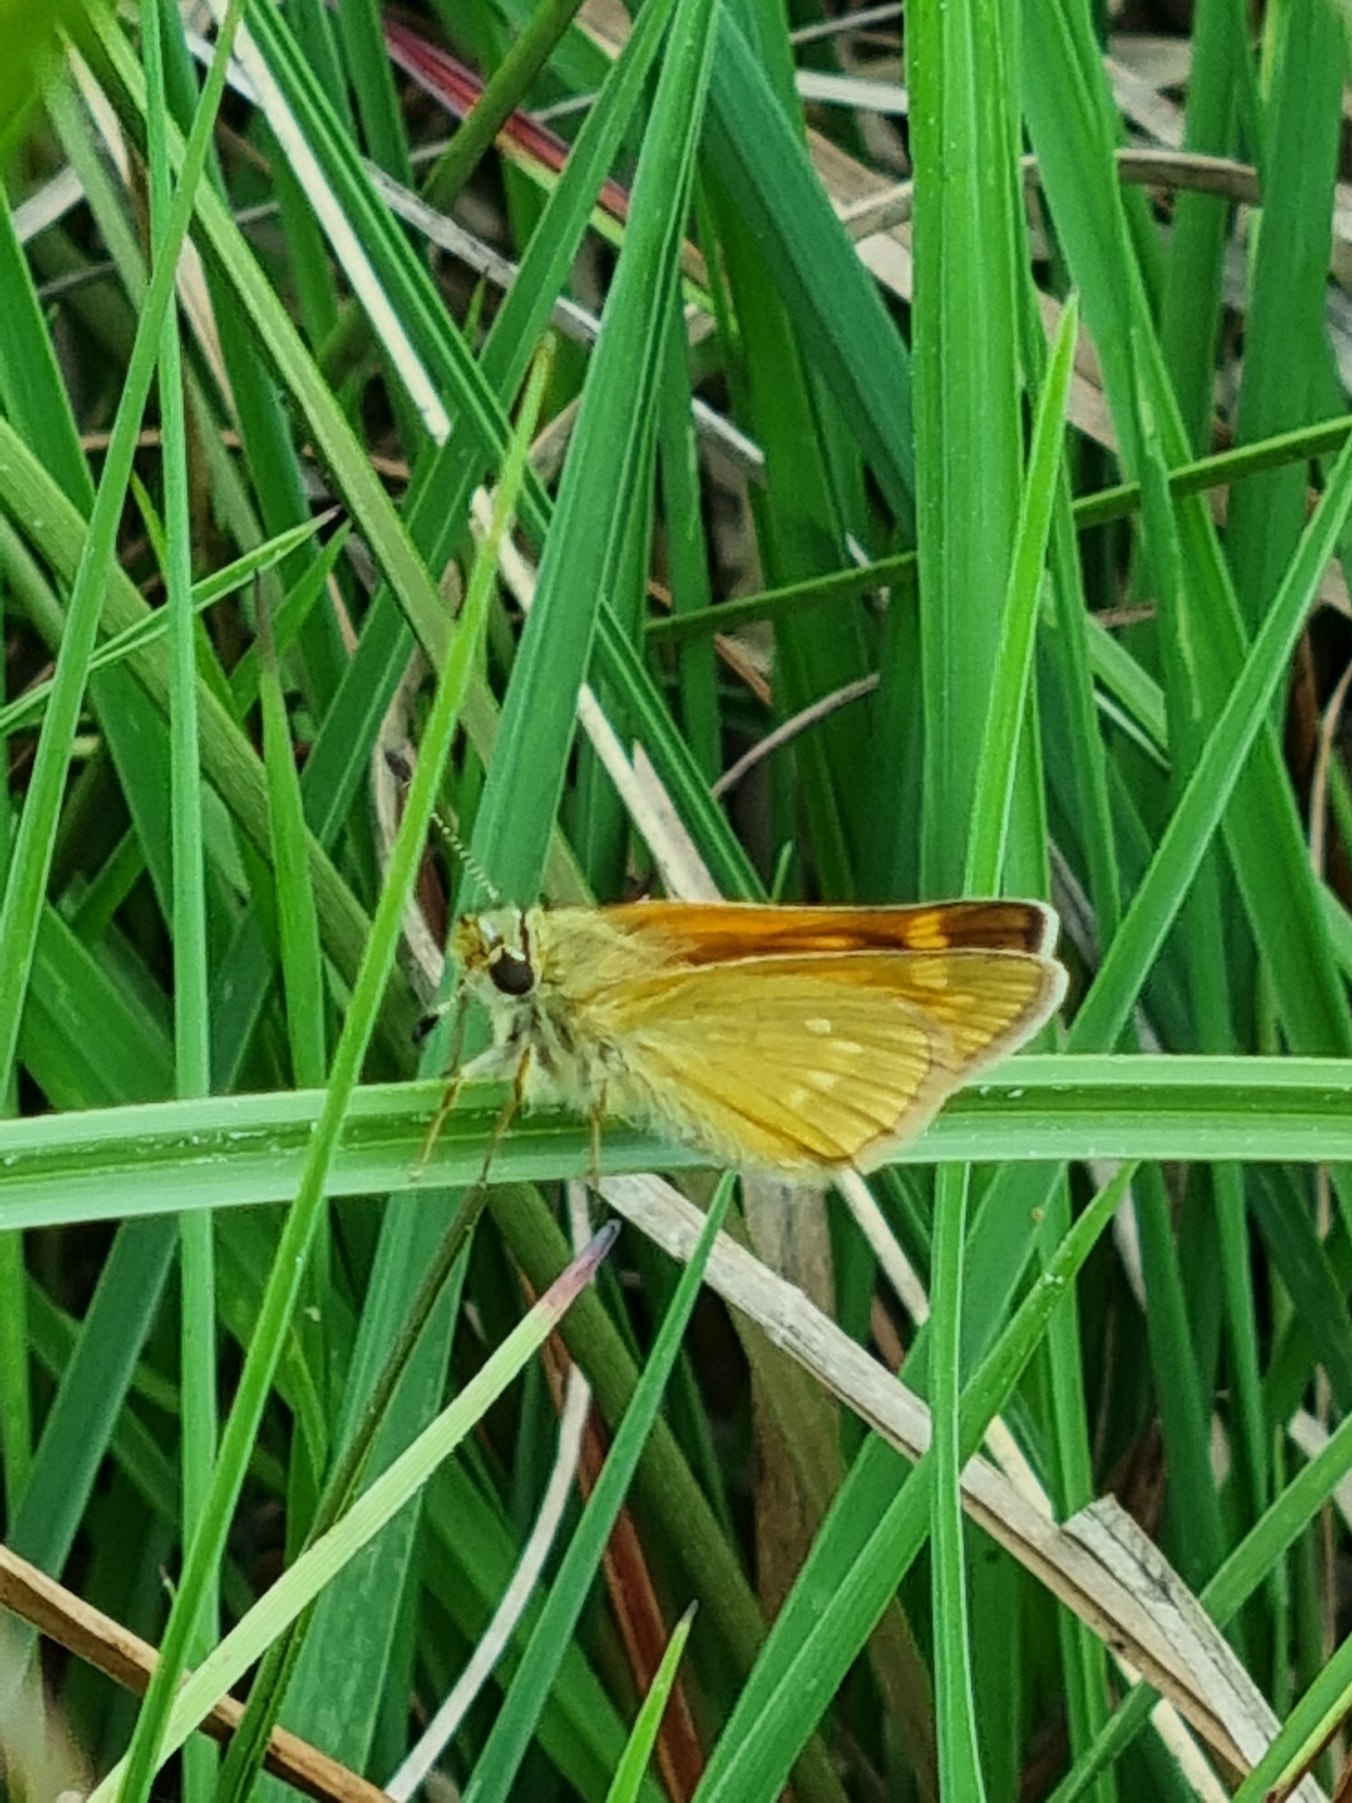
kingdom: Animalia
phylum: Arthropoda
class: Insecta
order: Lepidoptera
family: Hesperiidae
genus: Ochlodes
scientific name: Ochlodes venata
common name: Stor bredpande
